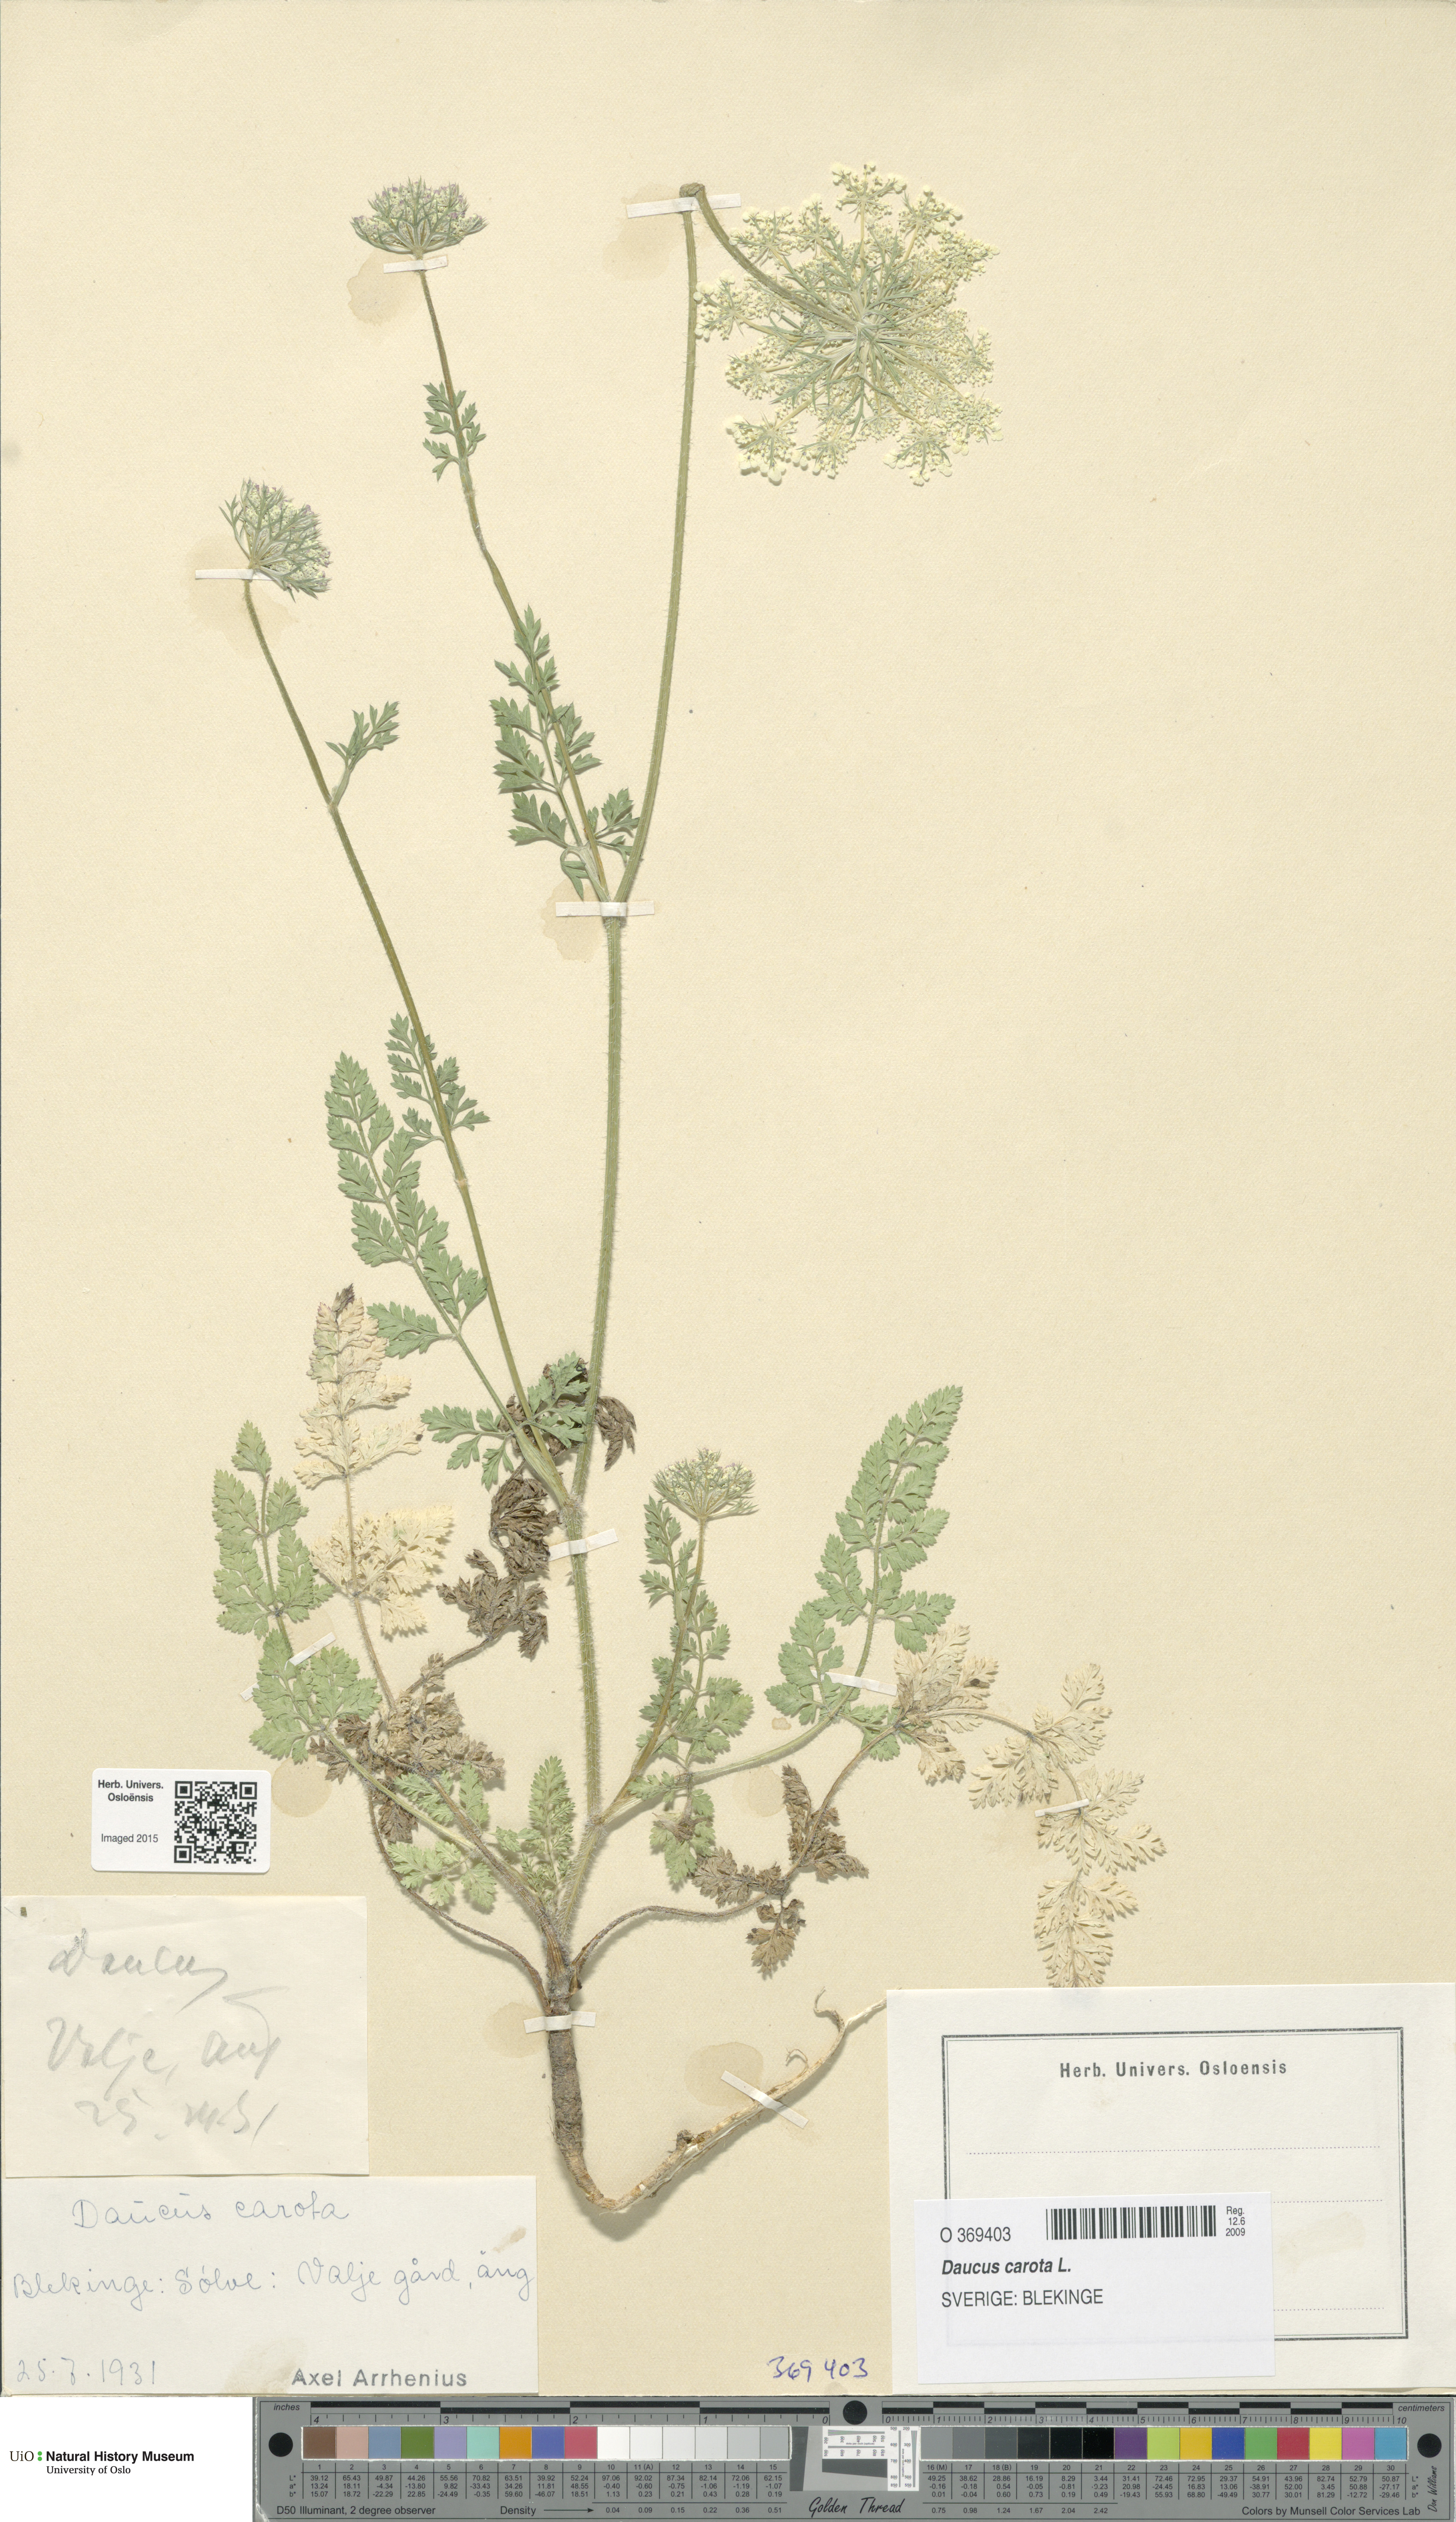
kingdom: Plantae
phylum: Tracheophyta
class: Magnoliopsida
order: Apiales
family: Apiaceae
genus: Daucus
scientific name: Daucus carota
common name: Wild carrot
